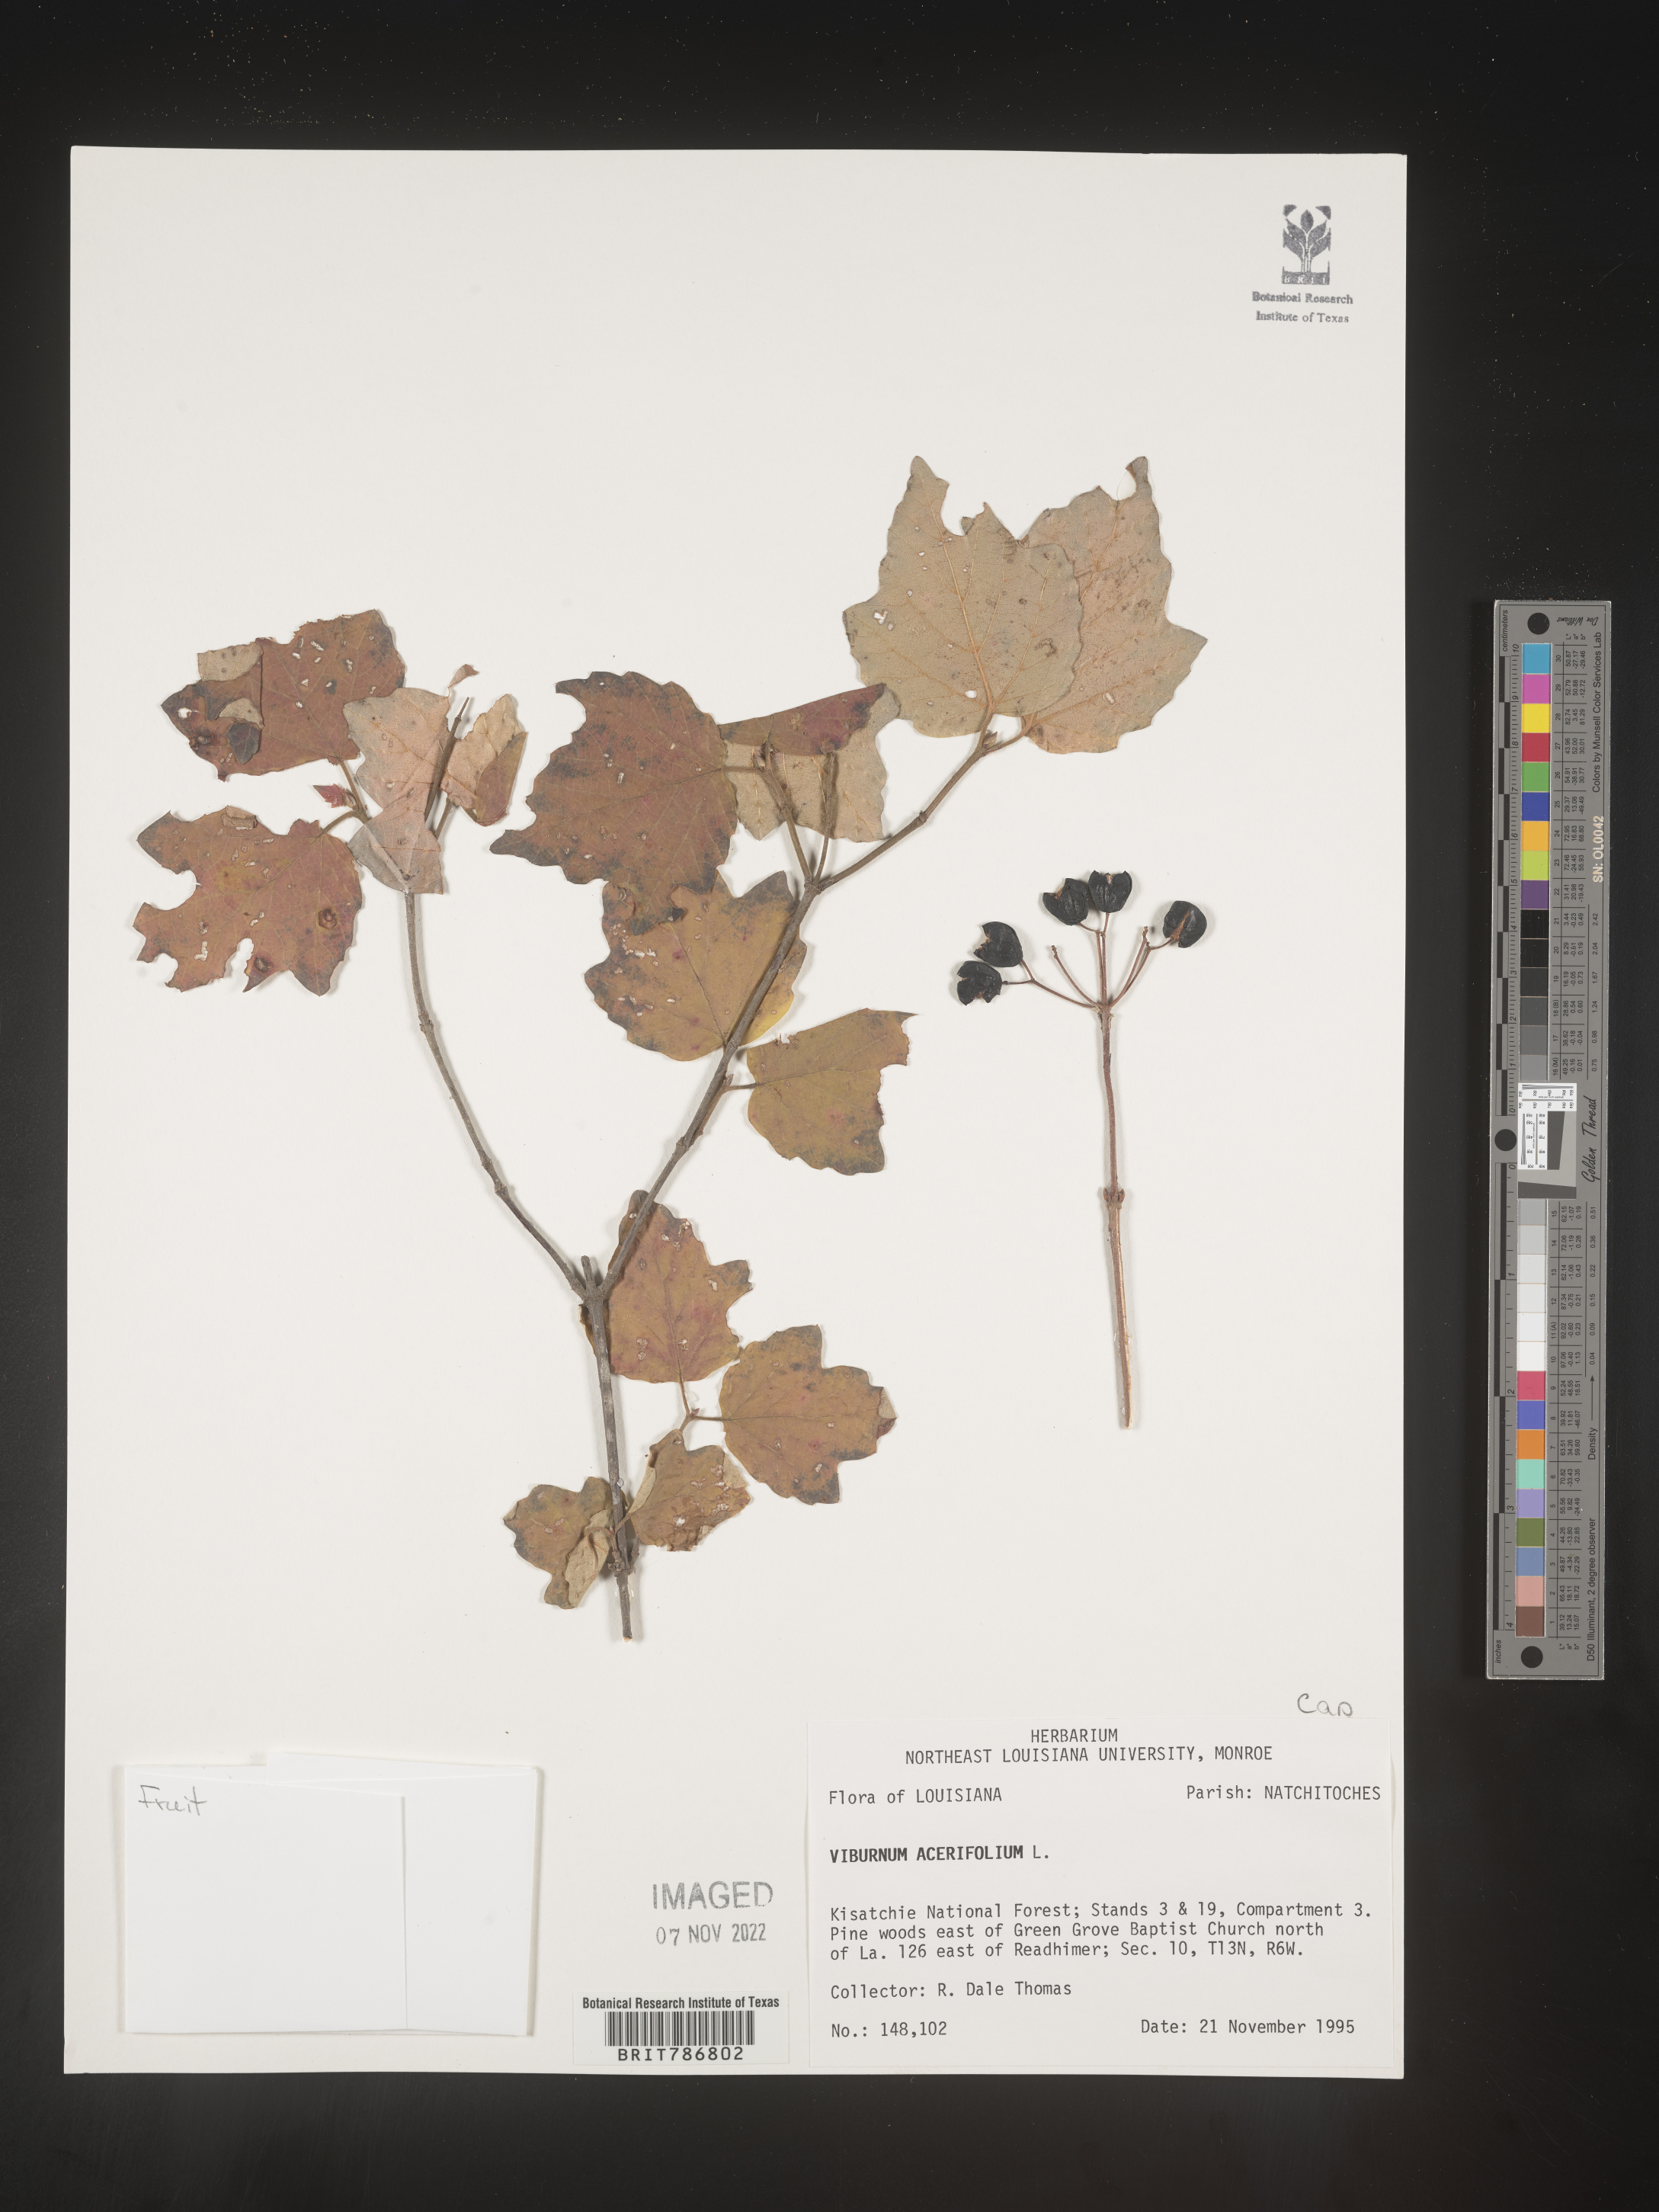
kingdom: Plantae
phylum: Tracheophyta
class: Magnoliopsida
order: Dipsacales
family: Viburnaceae
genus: Viburnum
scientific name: Viburnum acerifolium
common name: Dockmackie
